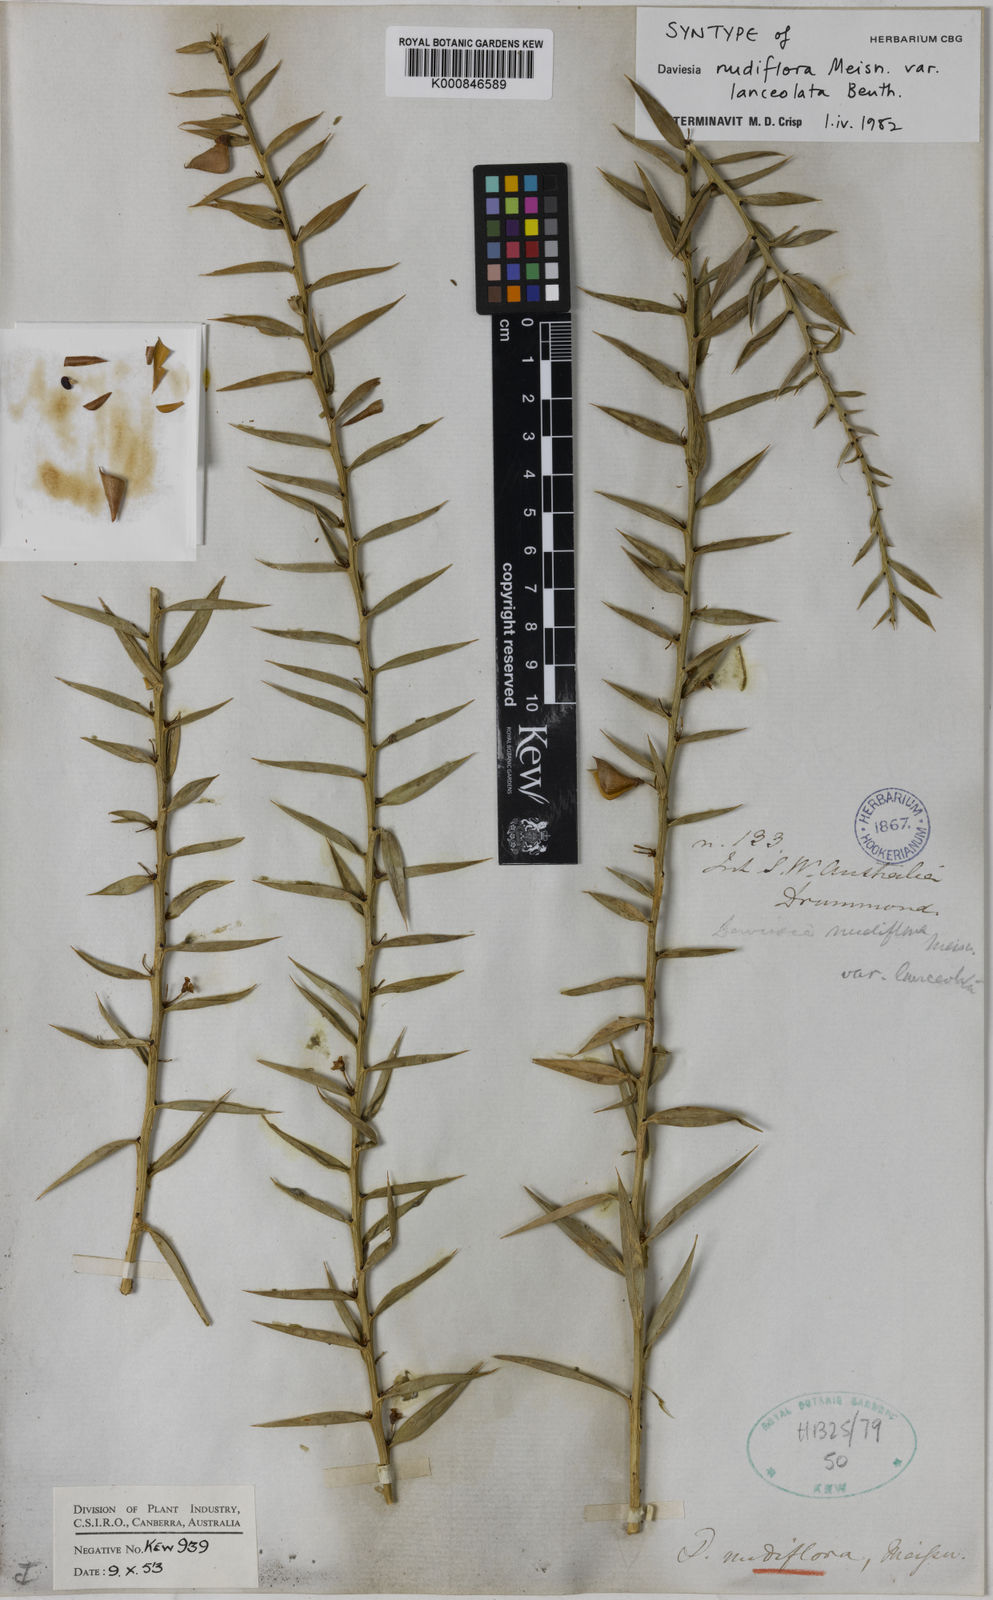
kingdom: Plantae
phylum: Tracheophyta
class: Magnoliopsida
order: Fabales
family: Fabaceae
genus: Daviesia
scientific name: Daviesia nudiflora
